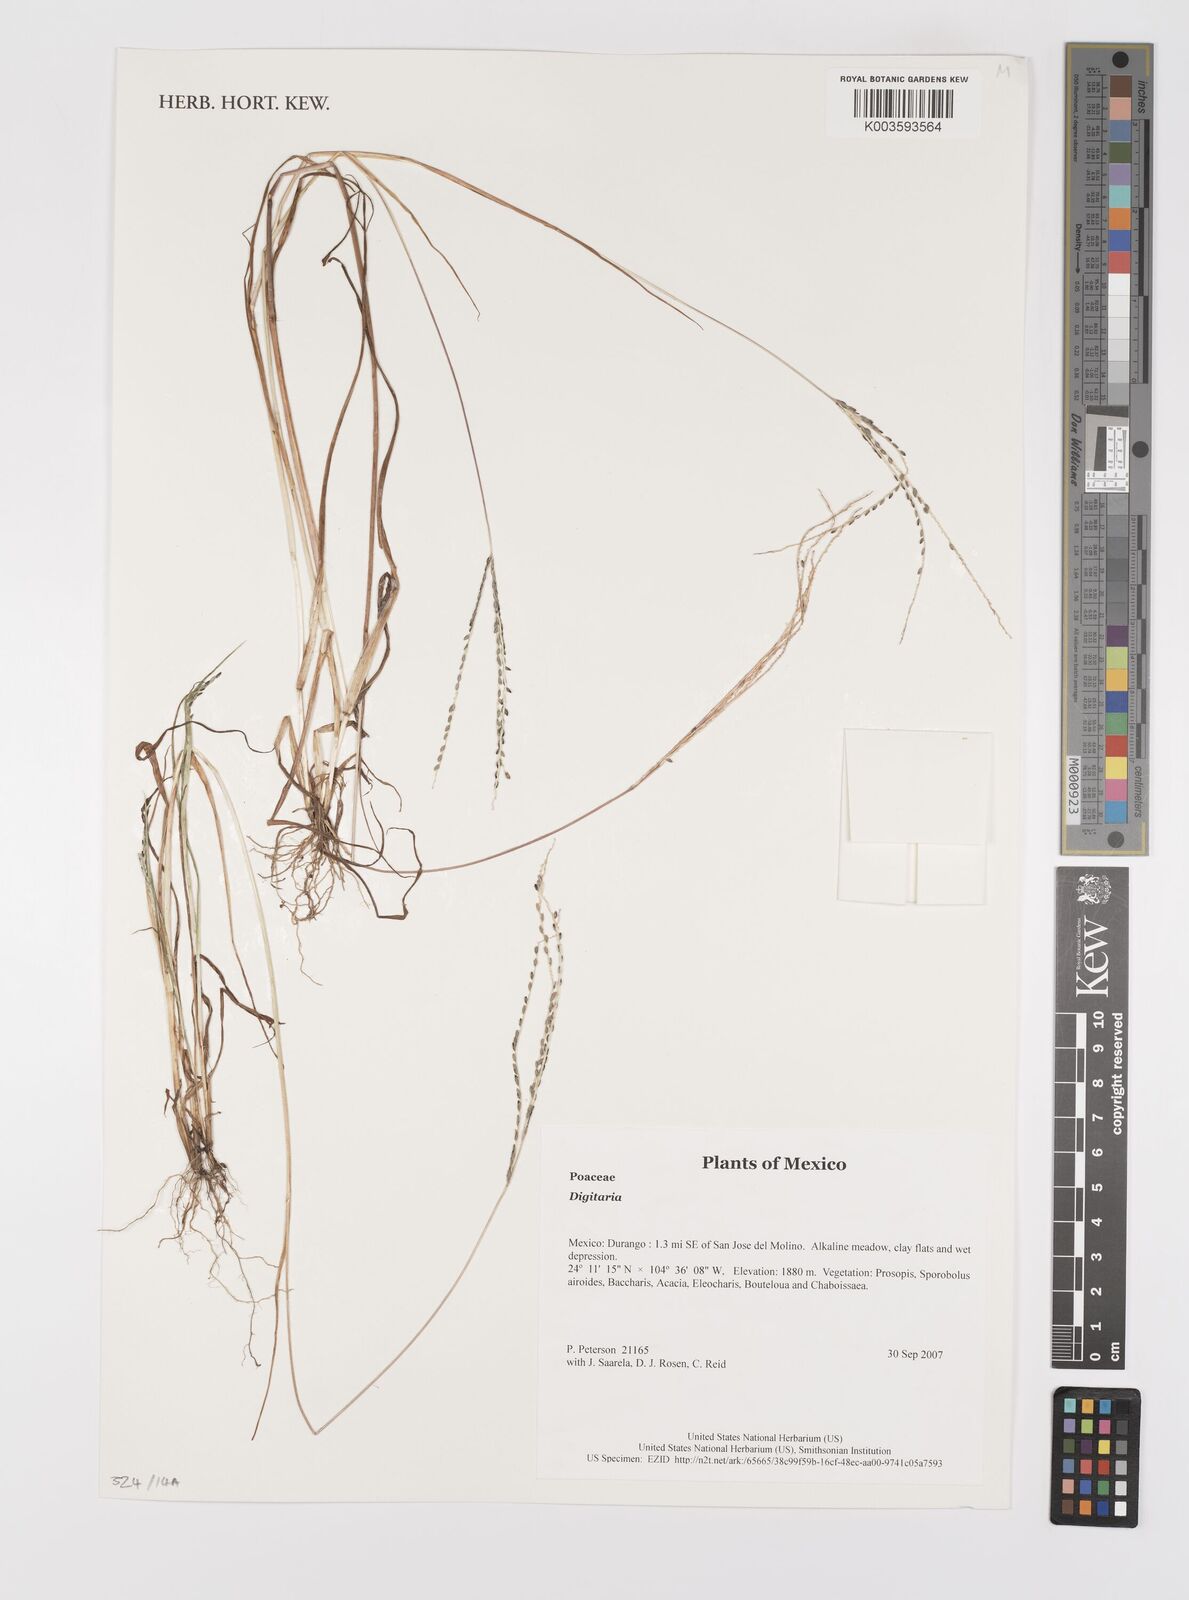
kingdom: Plantae
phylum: Tracheophyta
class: Liliopsida
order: Poales
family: Poaceae
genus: Digitaria
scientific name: Digitaria spec
